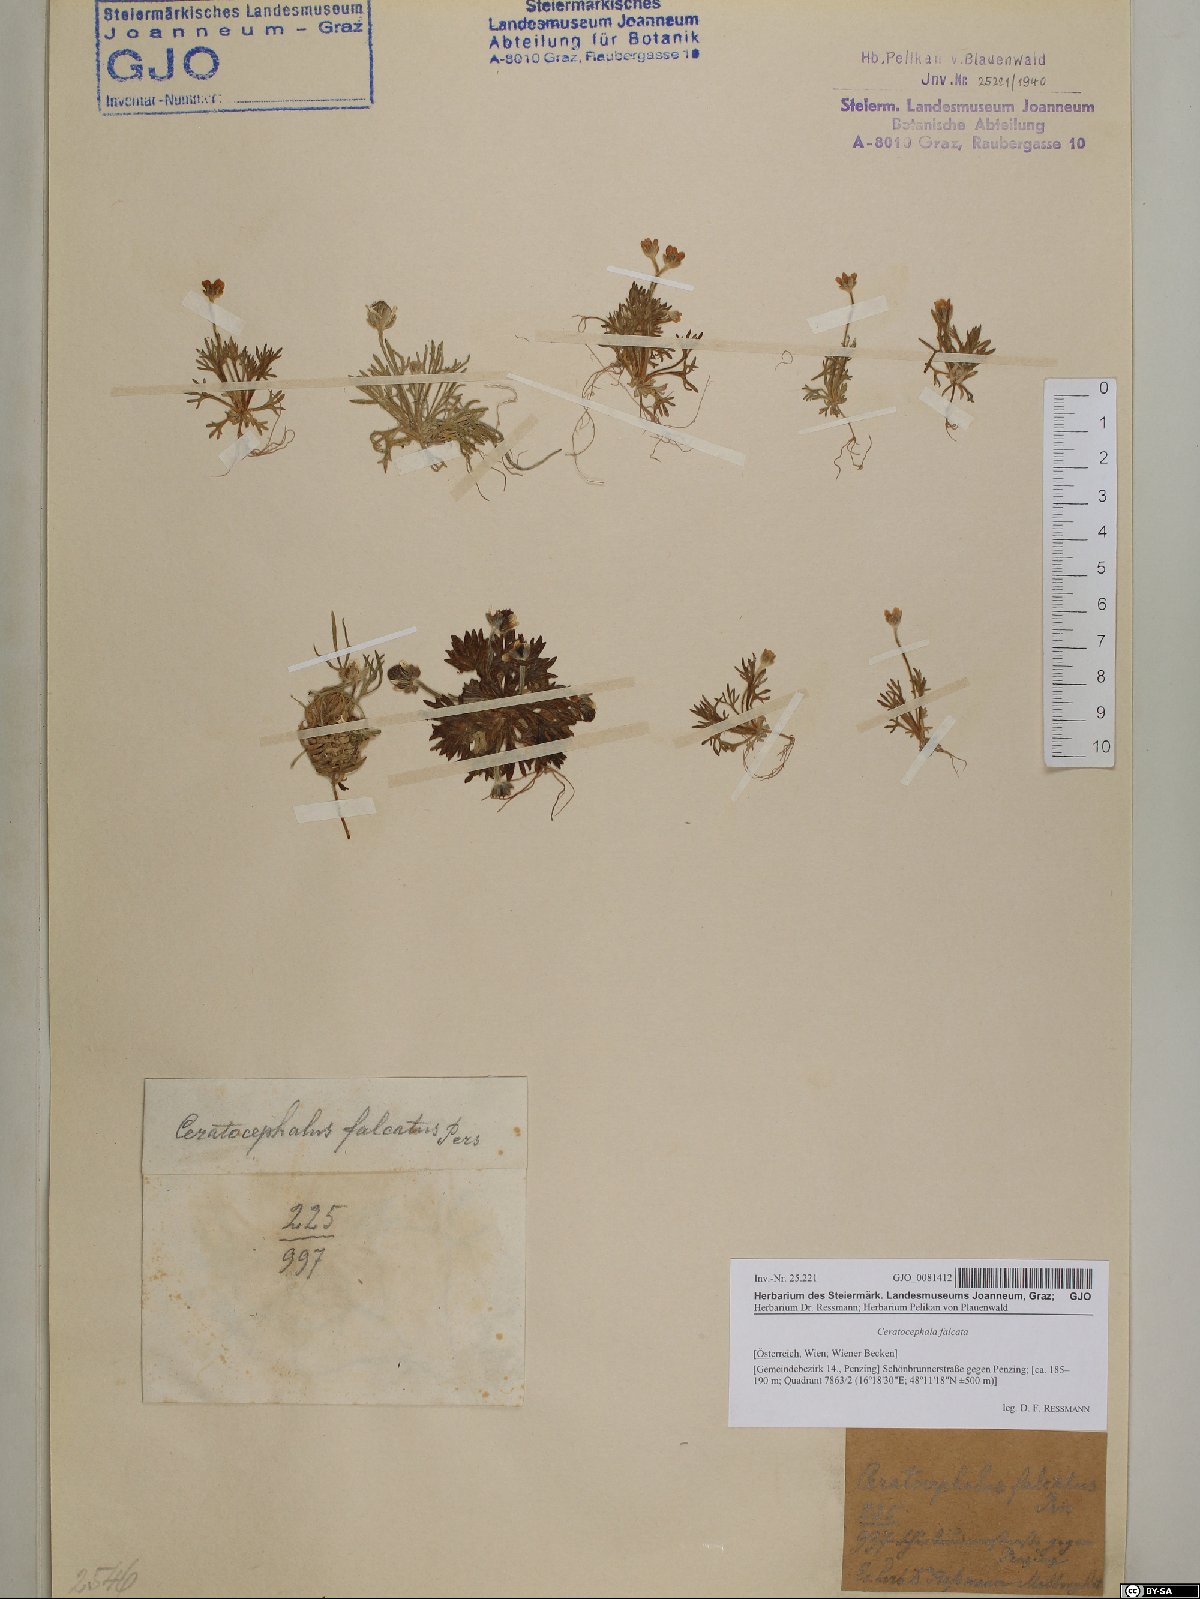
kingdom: Plantae
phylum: Tracheophyta
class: Magnoliopsida
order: Ranunculales
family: Ranunculaceae
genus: Ceratocephala
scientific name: Ceratocephala falcata
